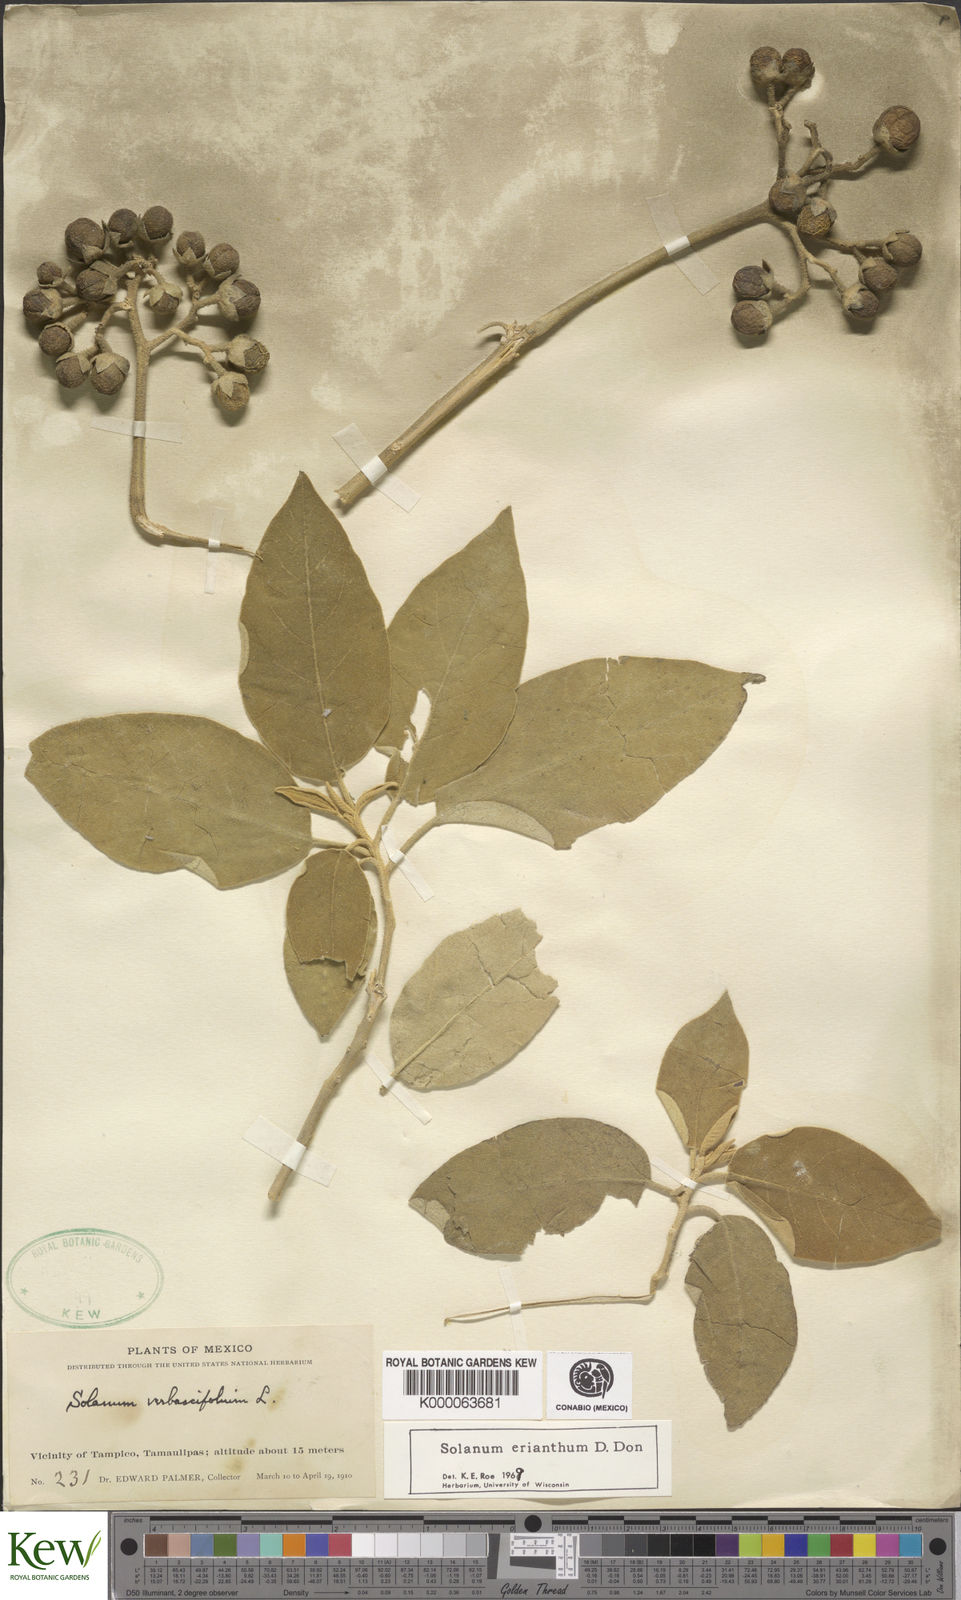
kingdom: Plantae
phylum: Tracheophyta
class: Magnoliopsida
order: Solanales
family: Solanaceae
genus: Solanum
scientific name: Solanum erianthum
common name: Tobacco-tree
